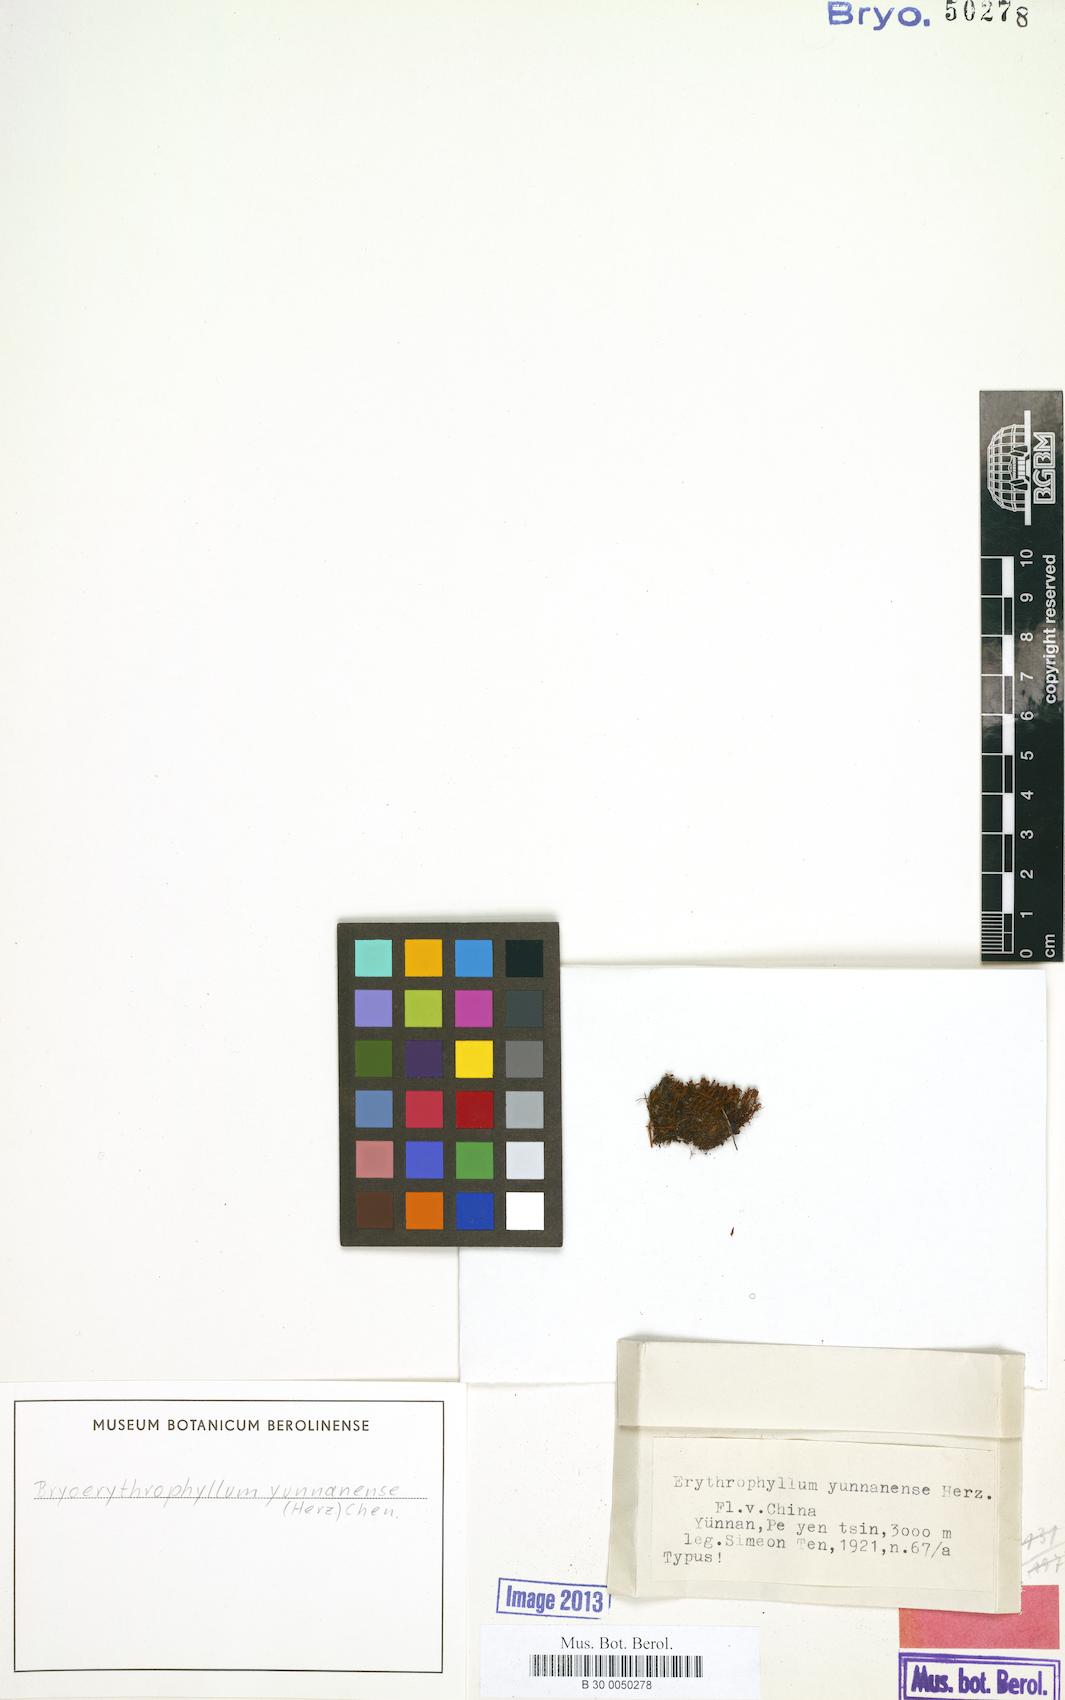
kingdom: Plantae
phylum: Bryophyta
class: Bryopsida
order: Pottiales
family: Pottiaceae
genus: Bryoerythrophyllum
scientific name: Bryoerythrophyllum yunnanense
